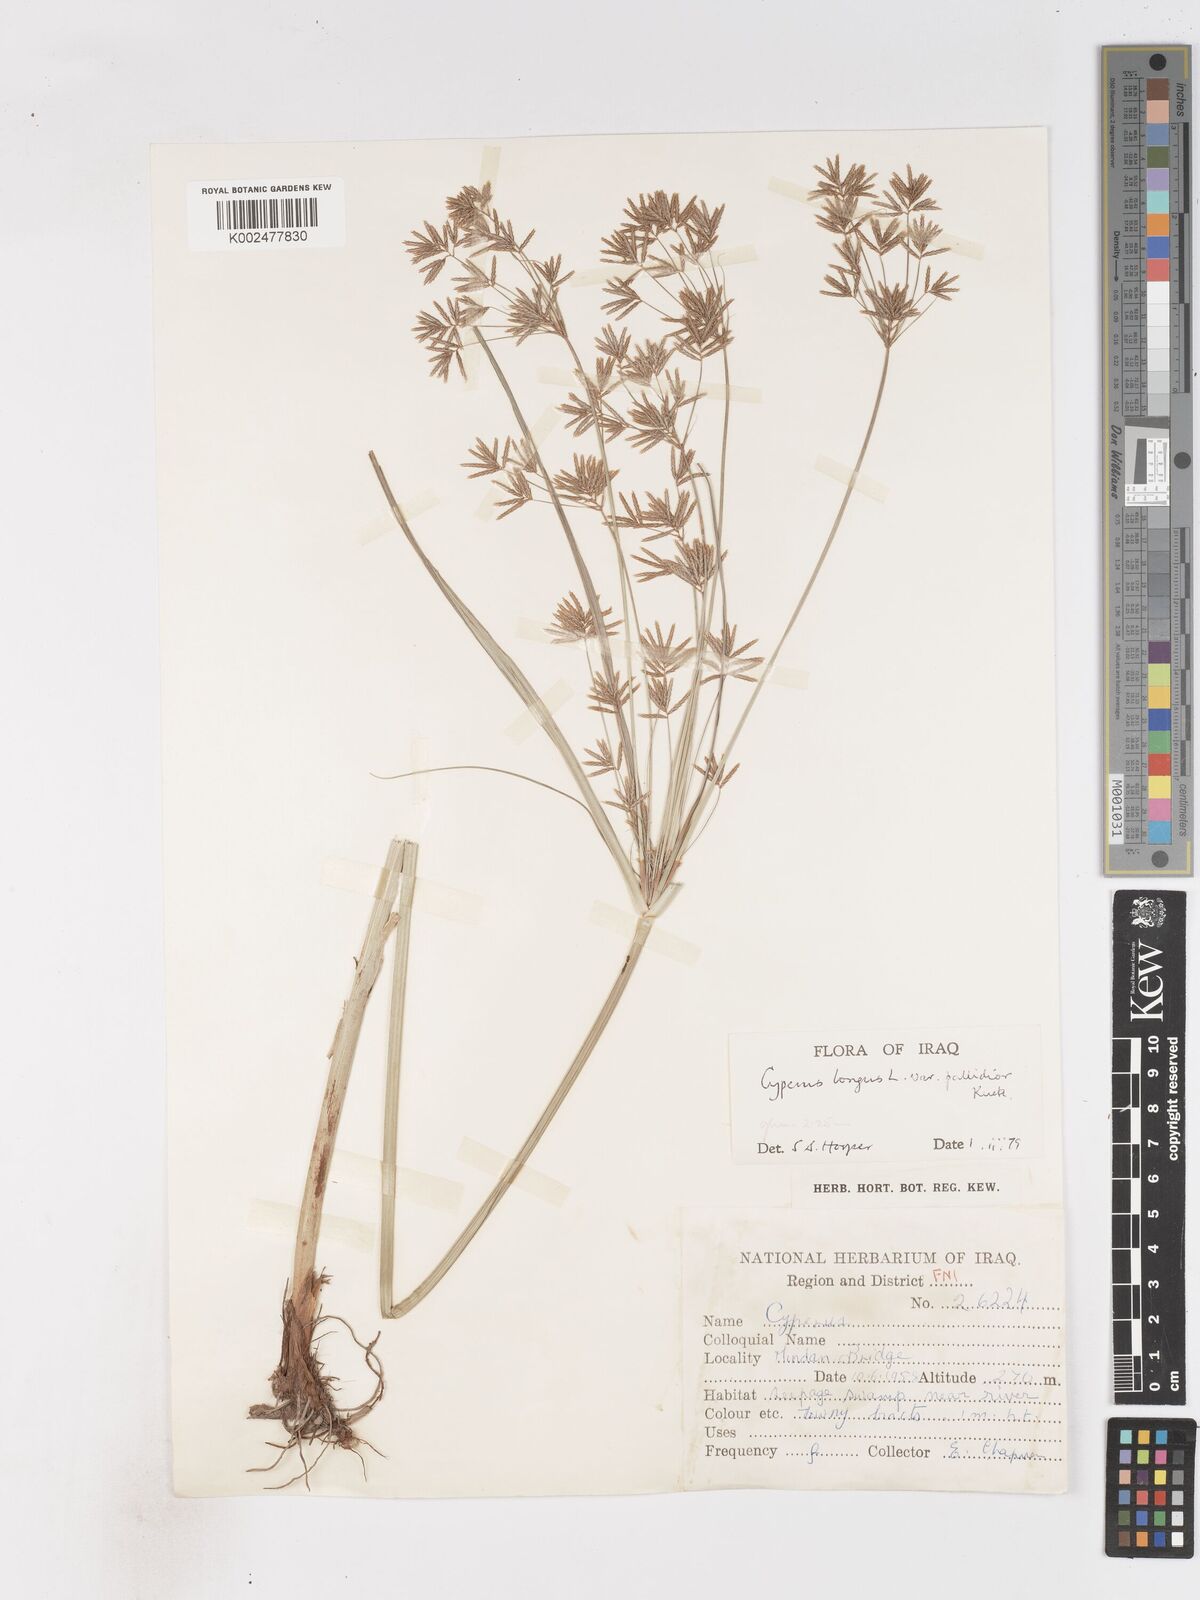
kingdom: Plantae
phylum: Tracheophyta
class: Liliopsida
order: Poales
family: Cyperaceae
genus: Cyperus
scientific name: Cyperus longus
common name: Galingale
